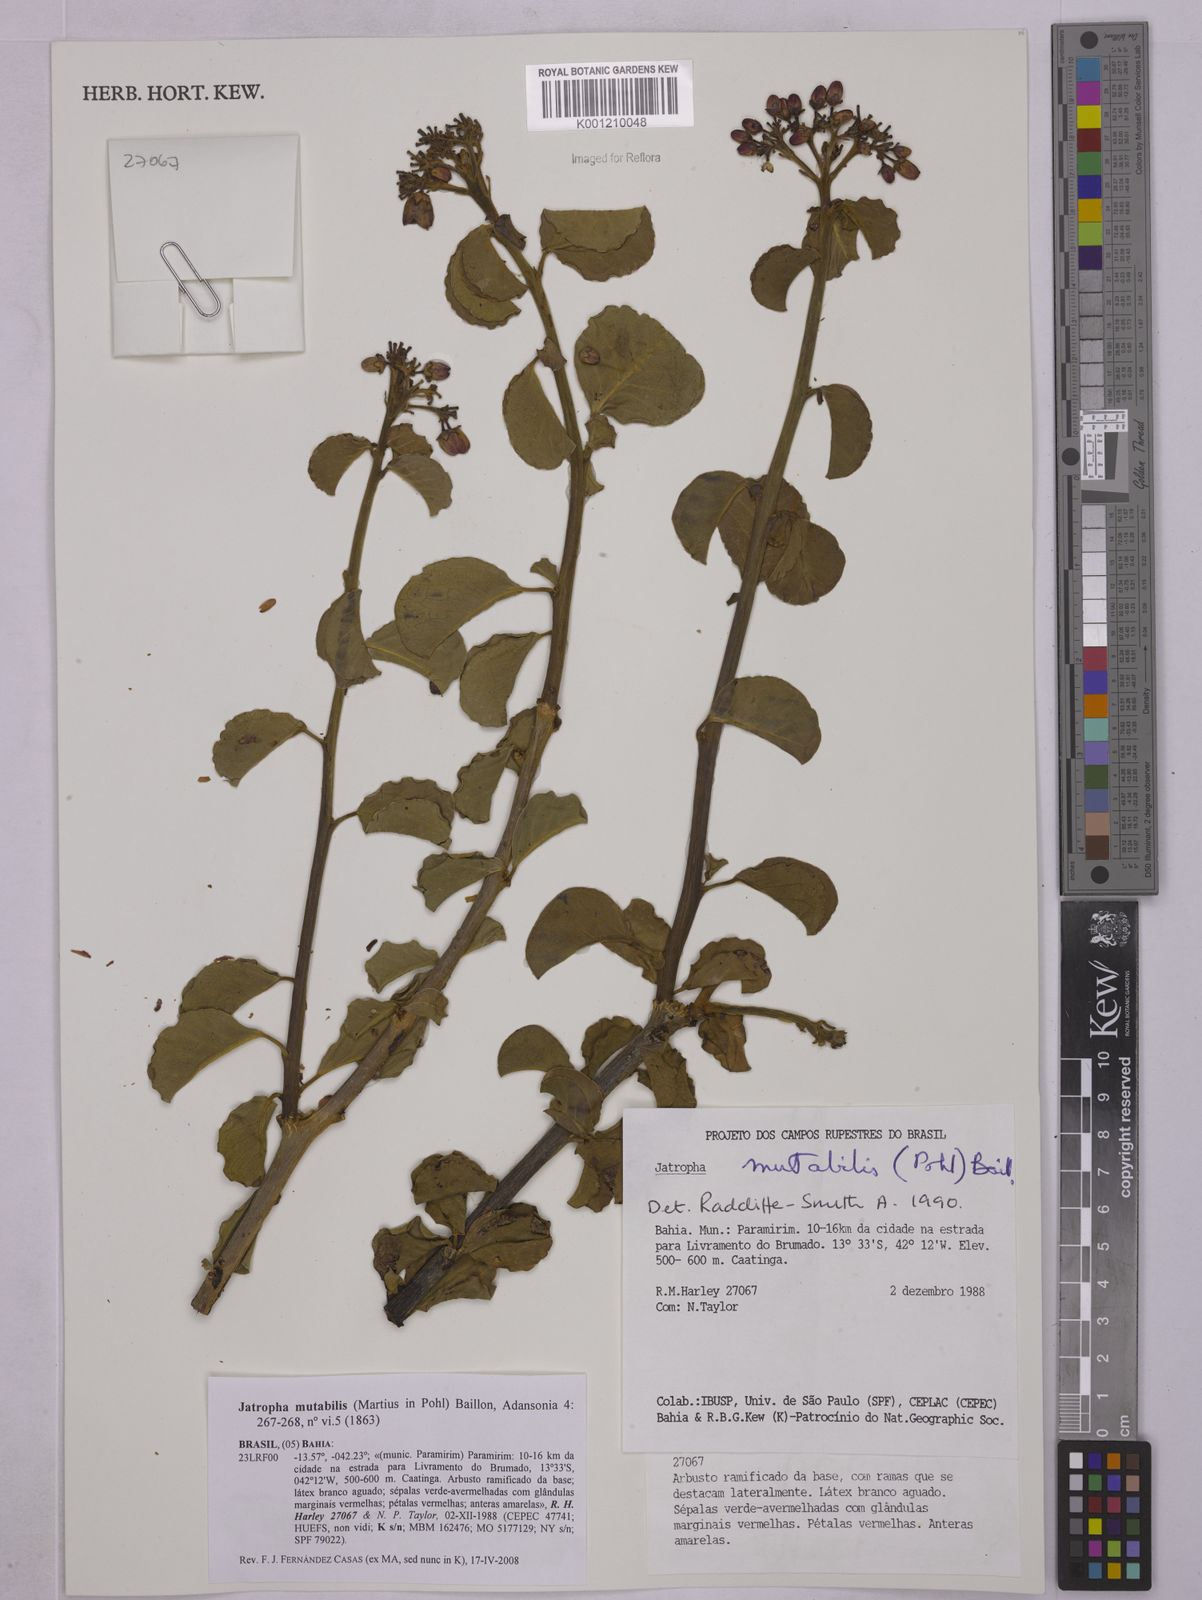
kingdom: Plantae
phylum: Tracheophyta
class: Magnoliopsida
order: Malpighiales
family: Euphorbiaceae
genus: Jatropha
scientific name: Jatropha mutabilis
